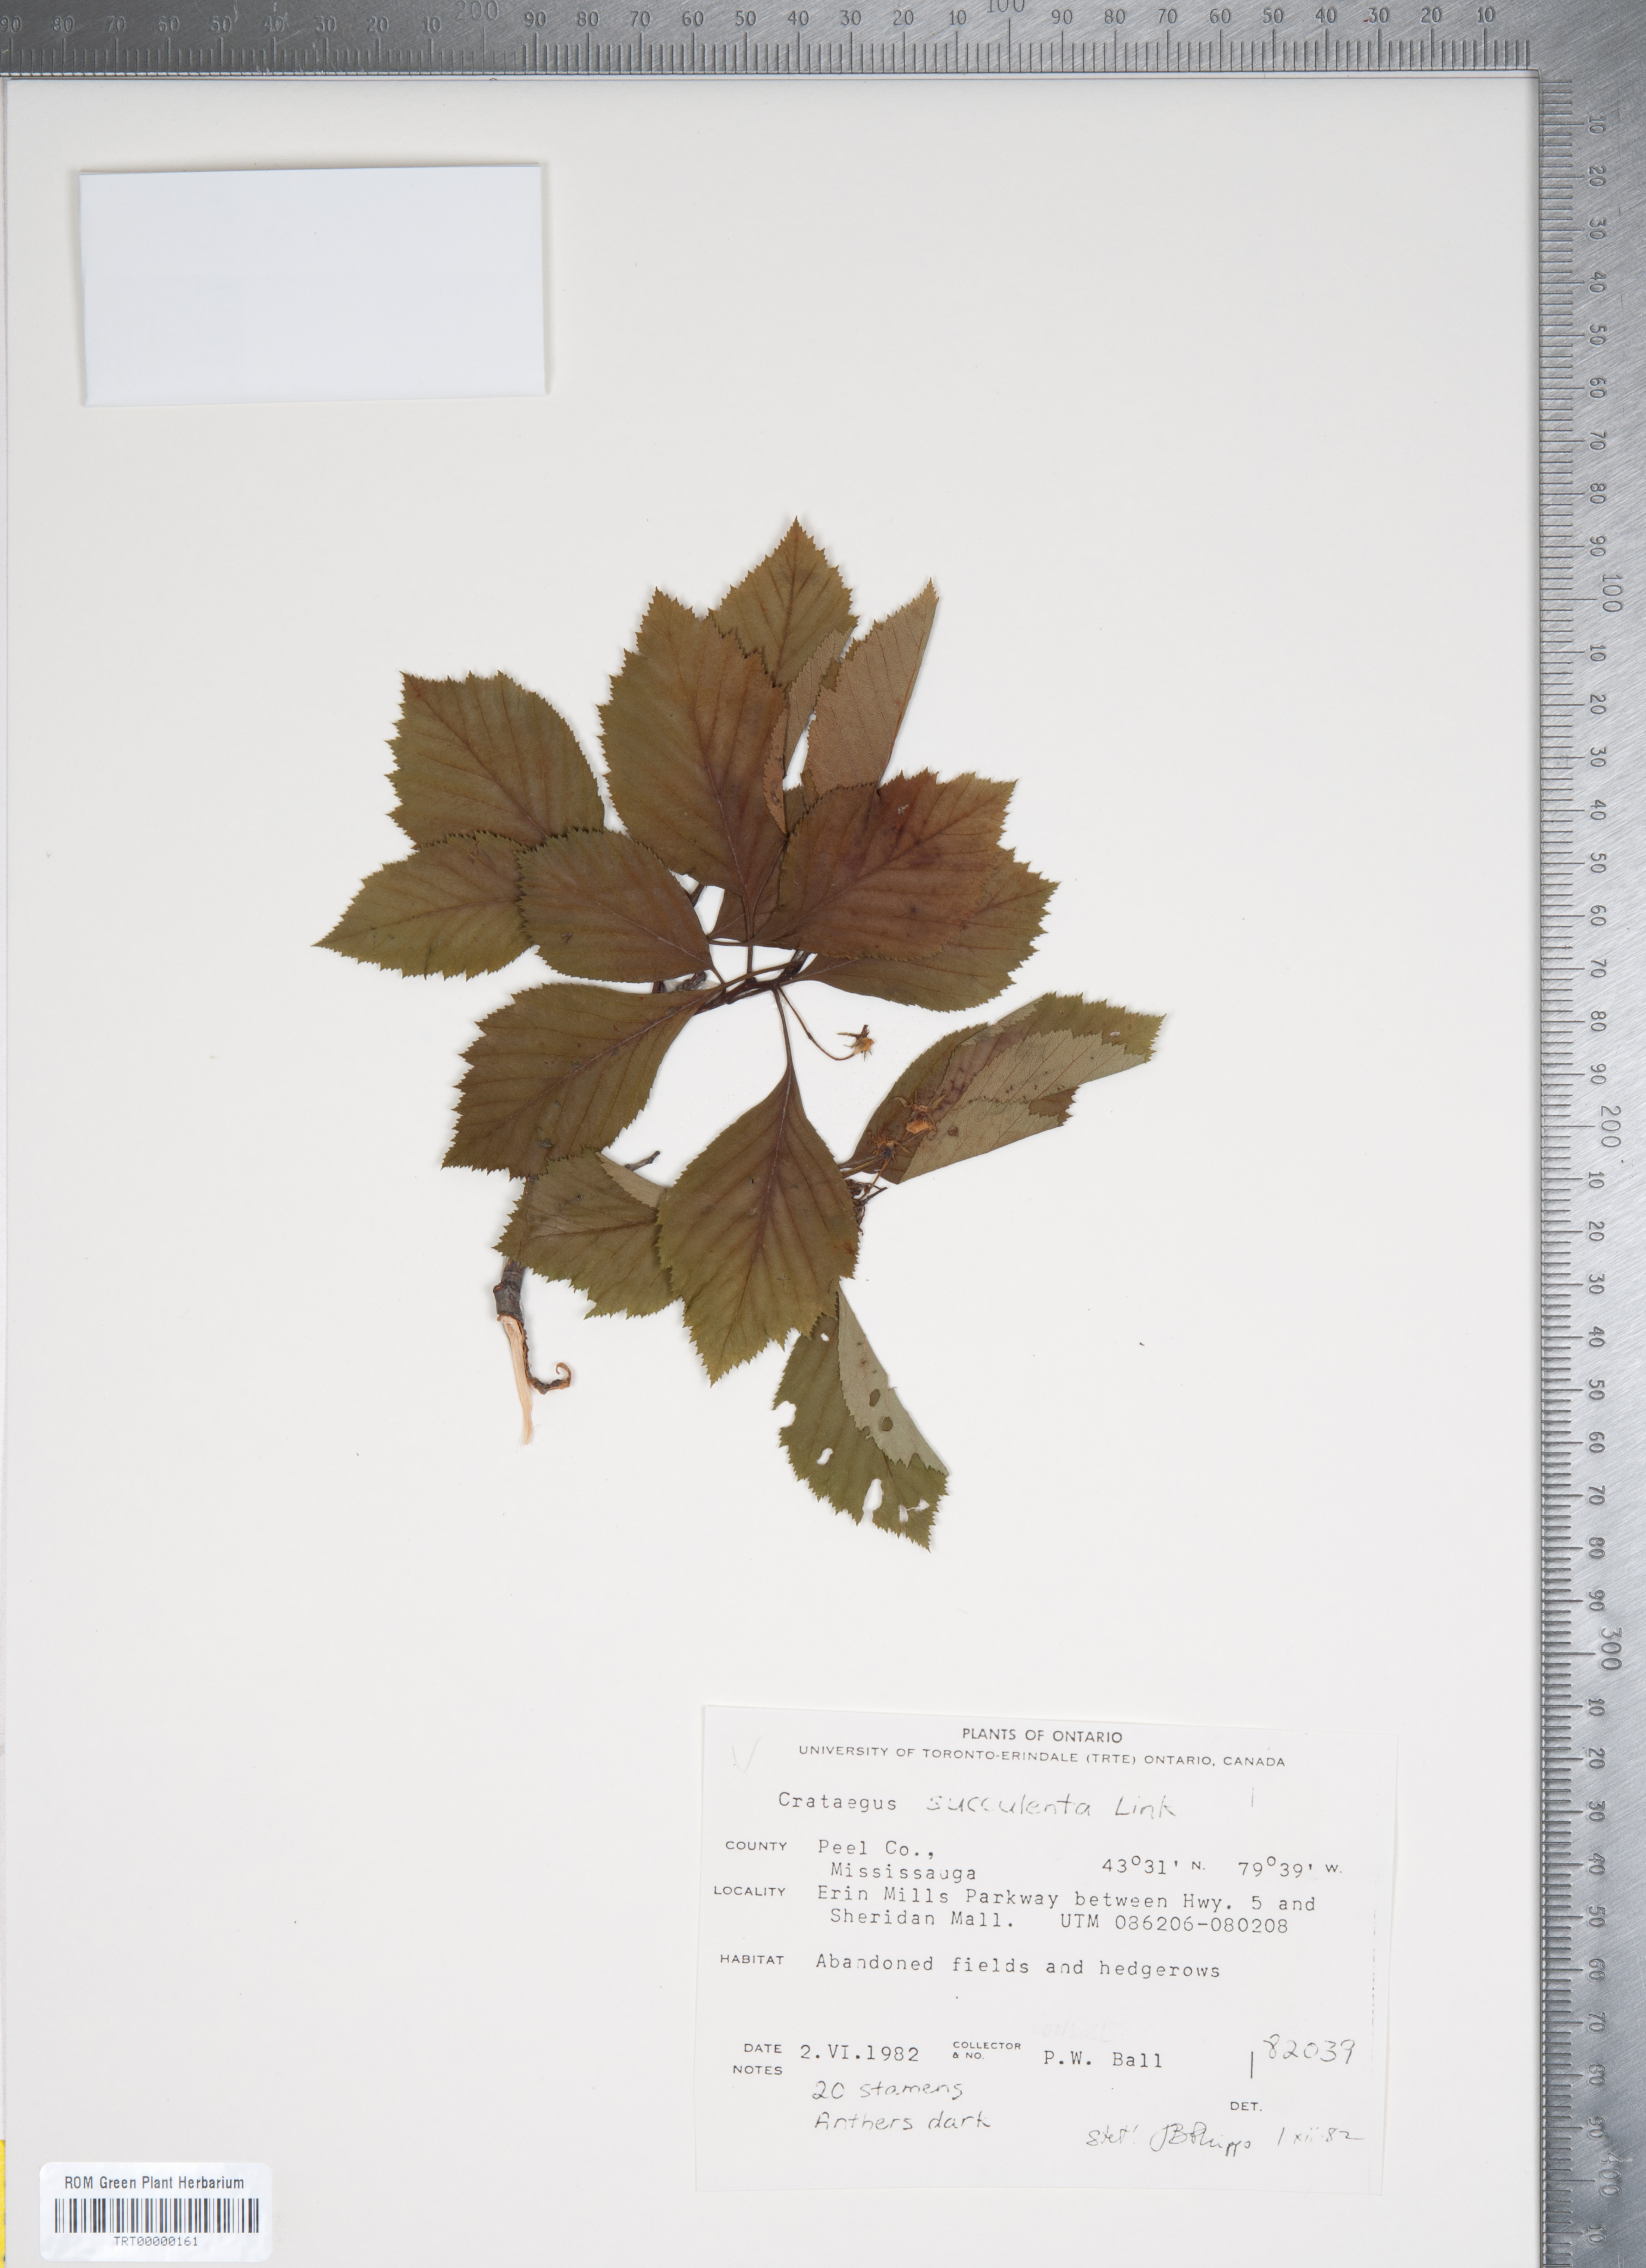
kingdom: Plantae
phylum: Tracheophyta
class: Magnoliopsida
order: Rosales
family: Rosaceae
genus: Crataegus
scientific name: Crataegus succulenta
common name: Fleshy hawthorn
